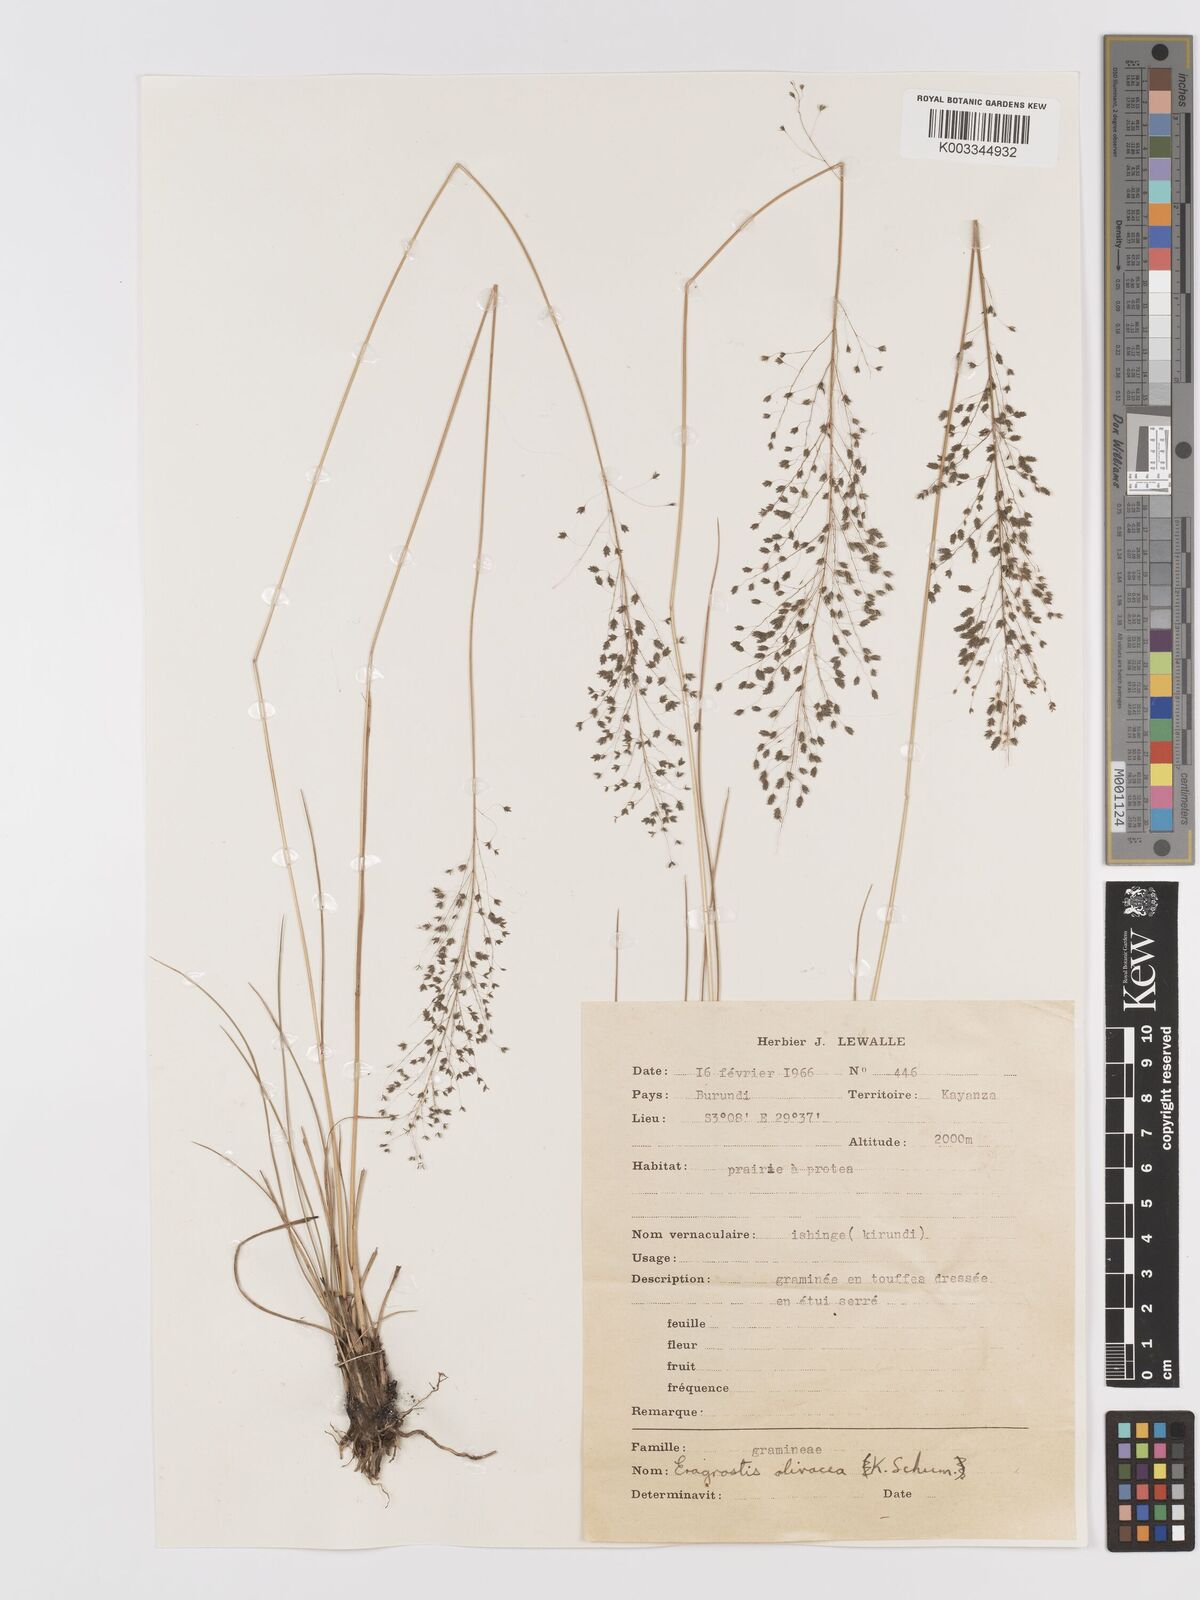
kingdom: Plantae
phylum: Tracheophyta
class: Liliopsida
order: Poales
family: Poaceae
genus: Eragrostis
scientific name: Eragrostis olivacea
